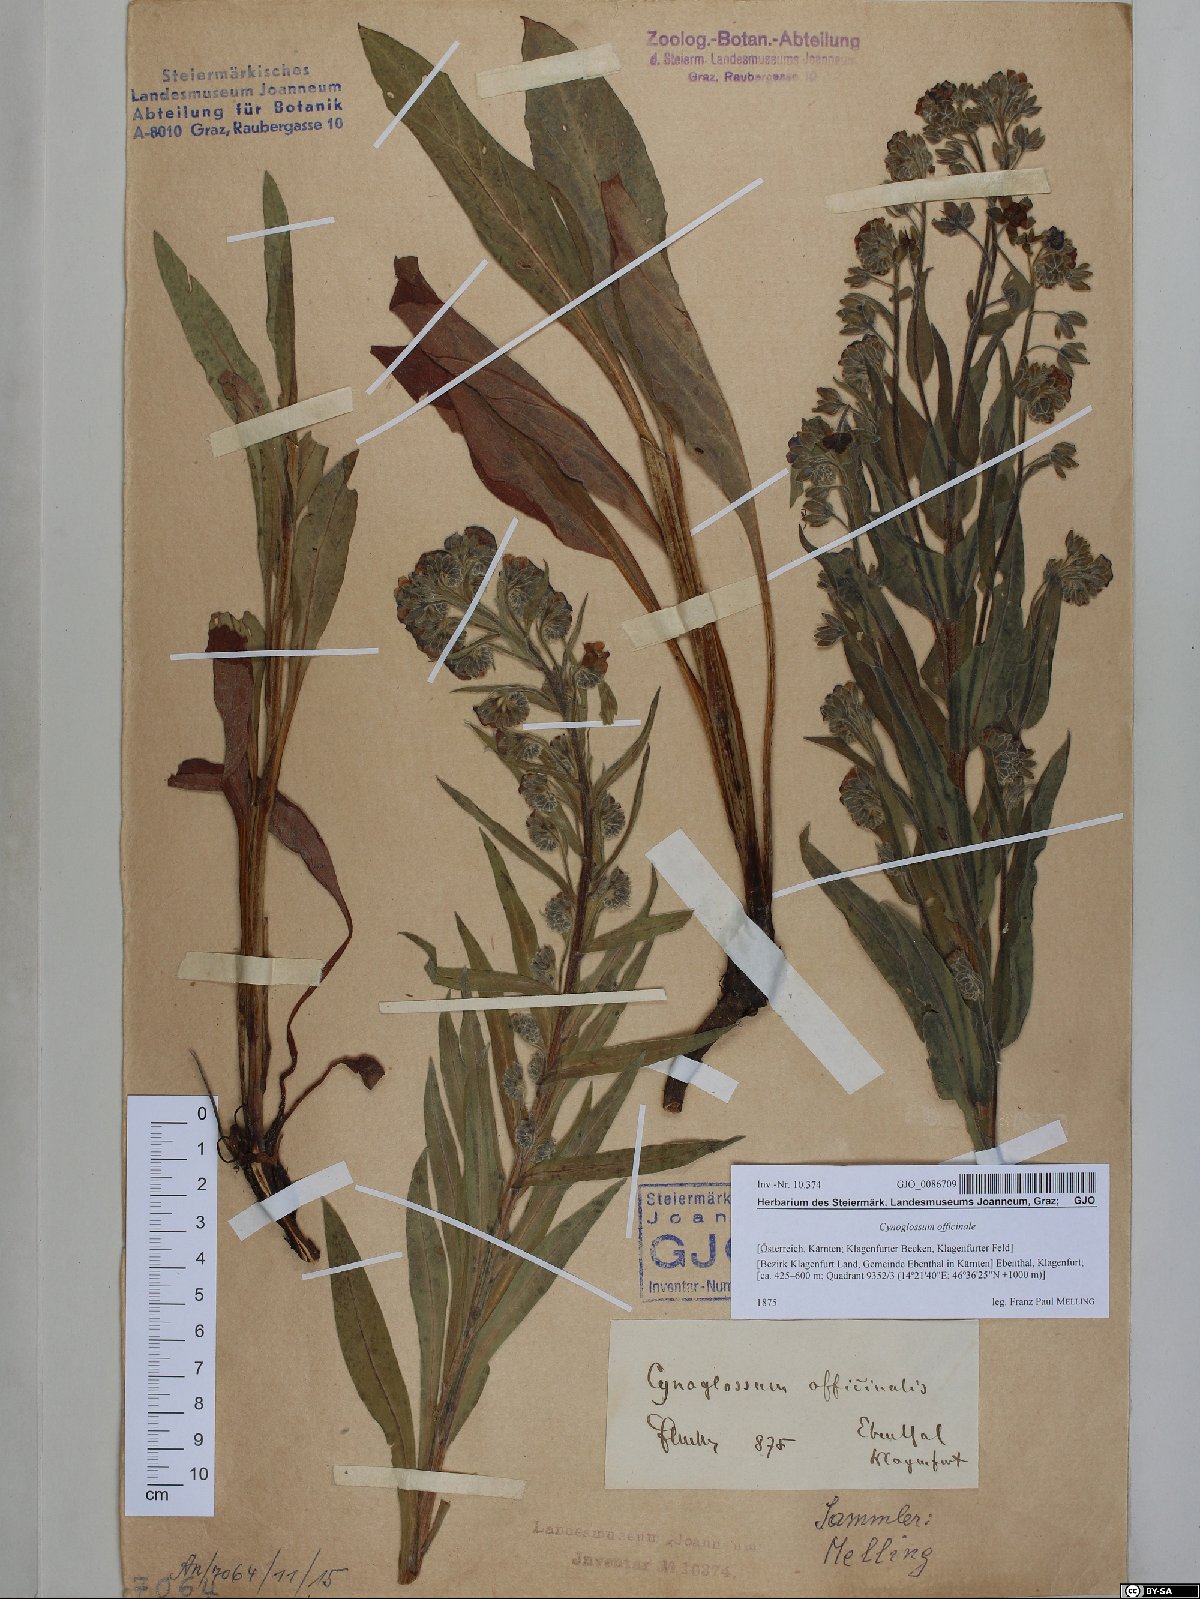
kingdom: Plantae
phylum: Tracheophyta
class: Magnoliopsida
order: Boraginales
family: Boraginaceae
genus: Cynoglossum
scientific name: Cynoglossum officinale
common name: Hound's-tongue
